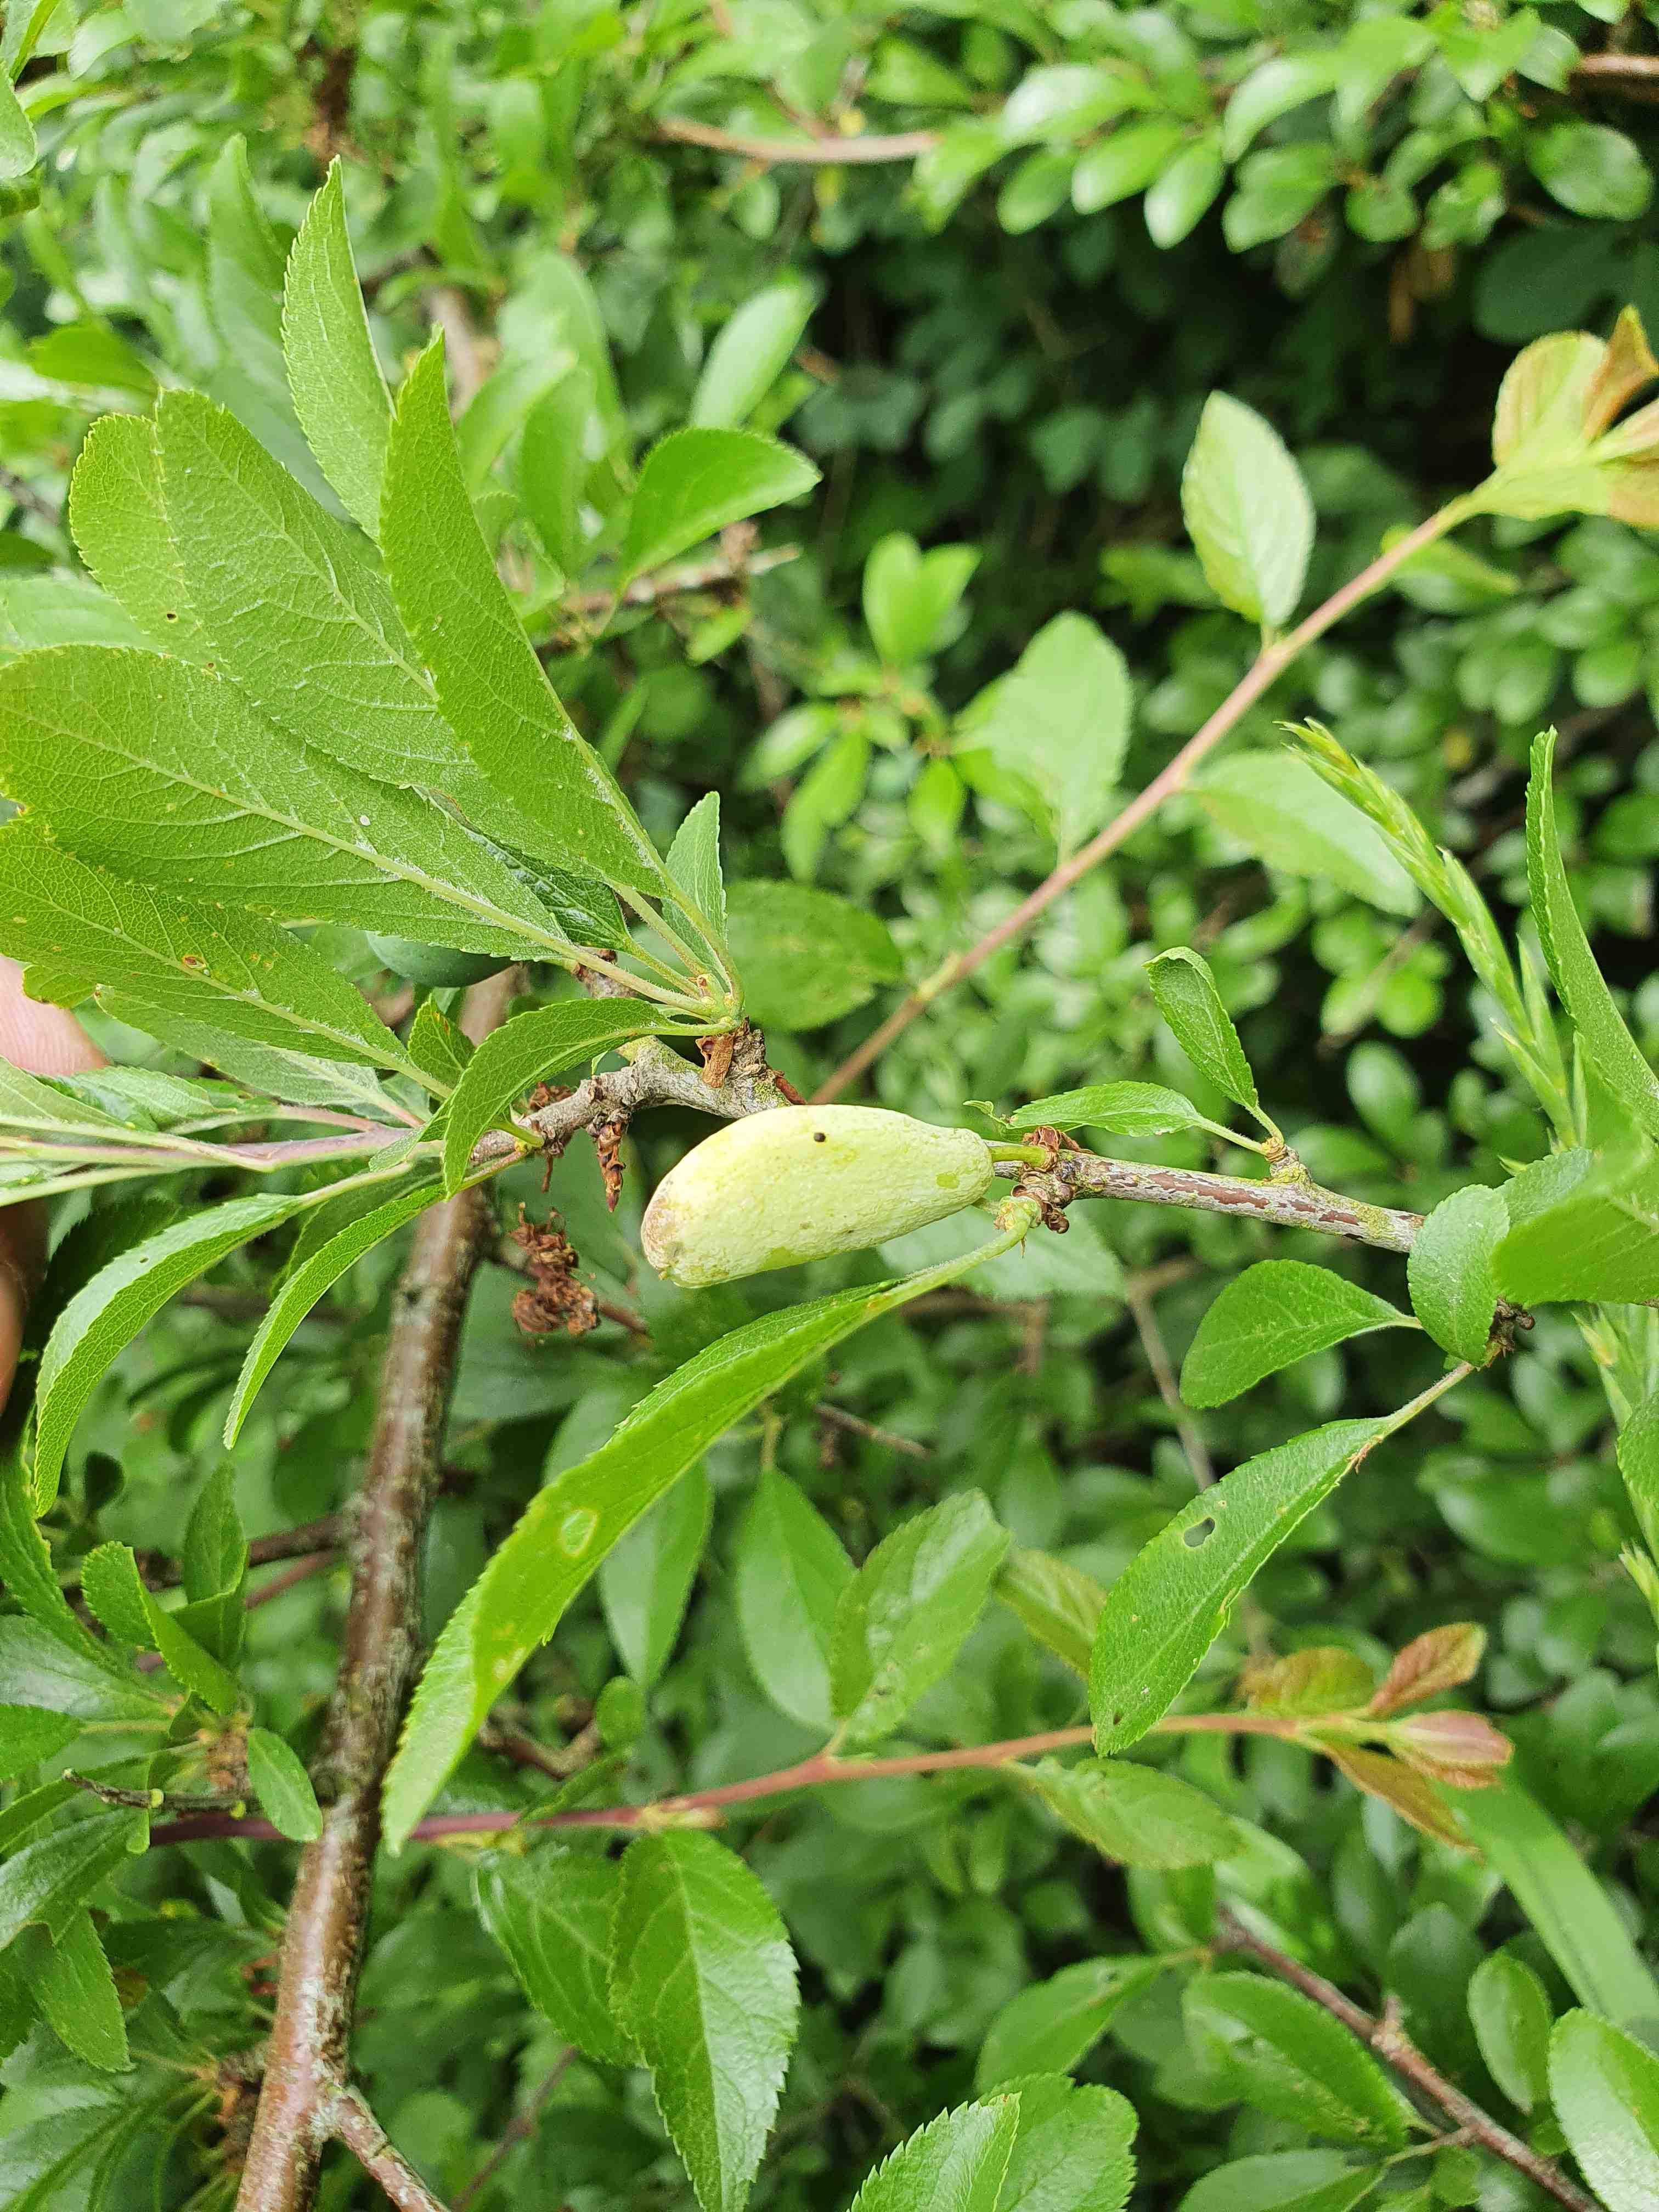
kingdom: Fungi
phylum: Ascomycota
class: Taphrinomycetes
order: Taphrinales
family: Taphrinaceae
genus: Taphrina
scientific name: Taphrina pruni
